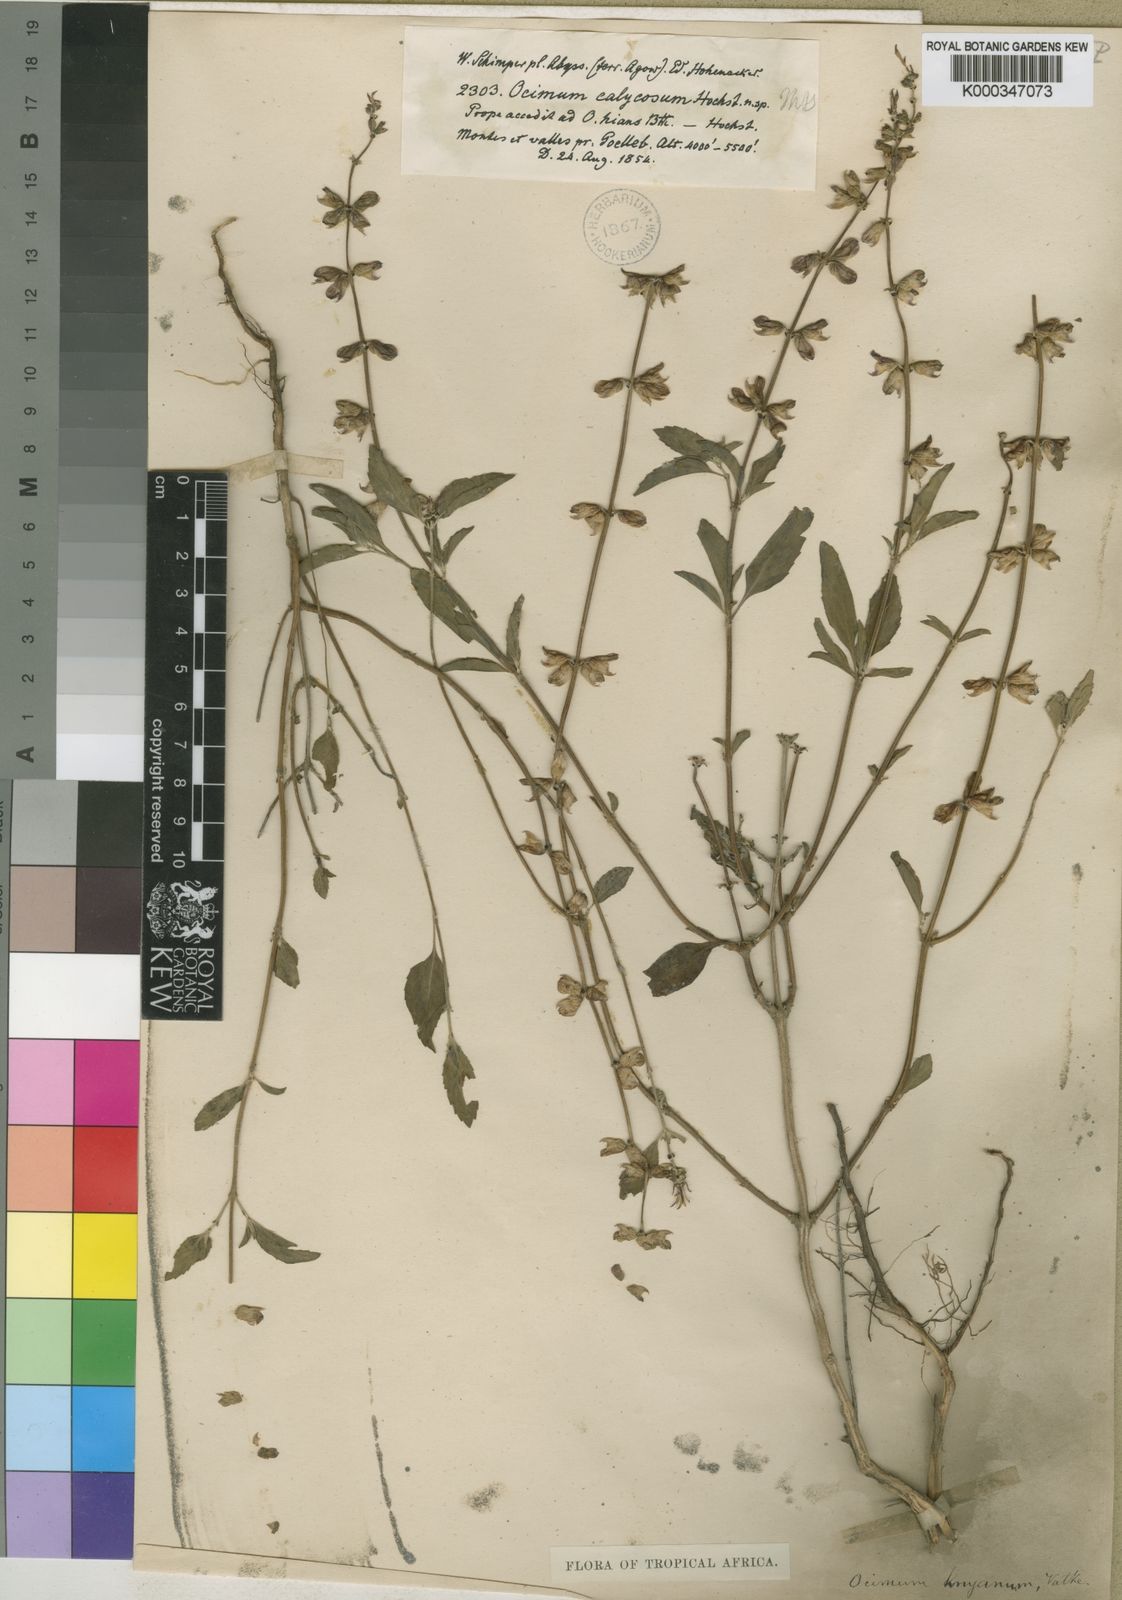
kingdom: Plantae
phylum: Tracheophyta
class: Magnoliopsida
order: Lamiales
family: Lamiaceae
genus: Ocimum
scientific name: Ocimum filamentosum
